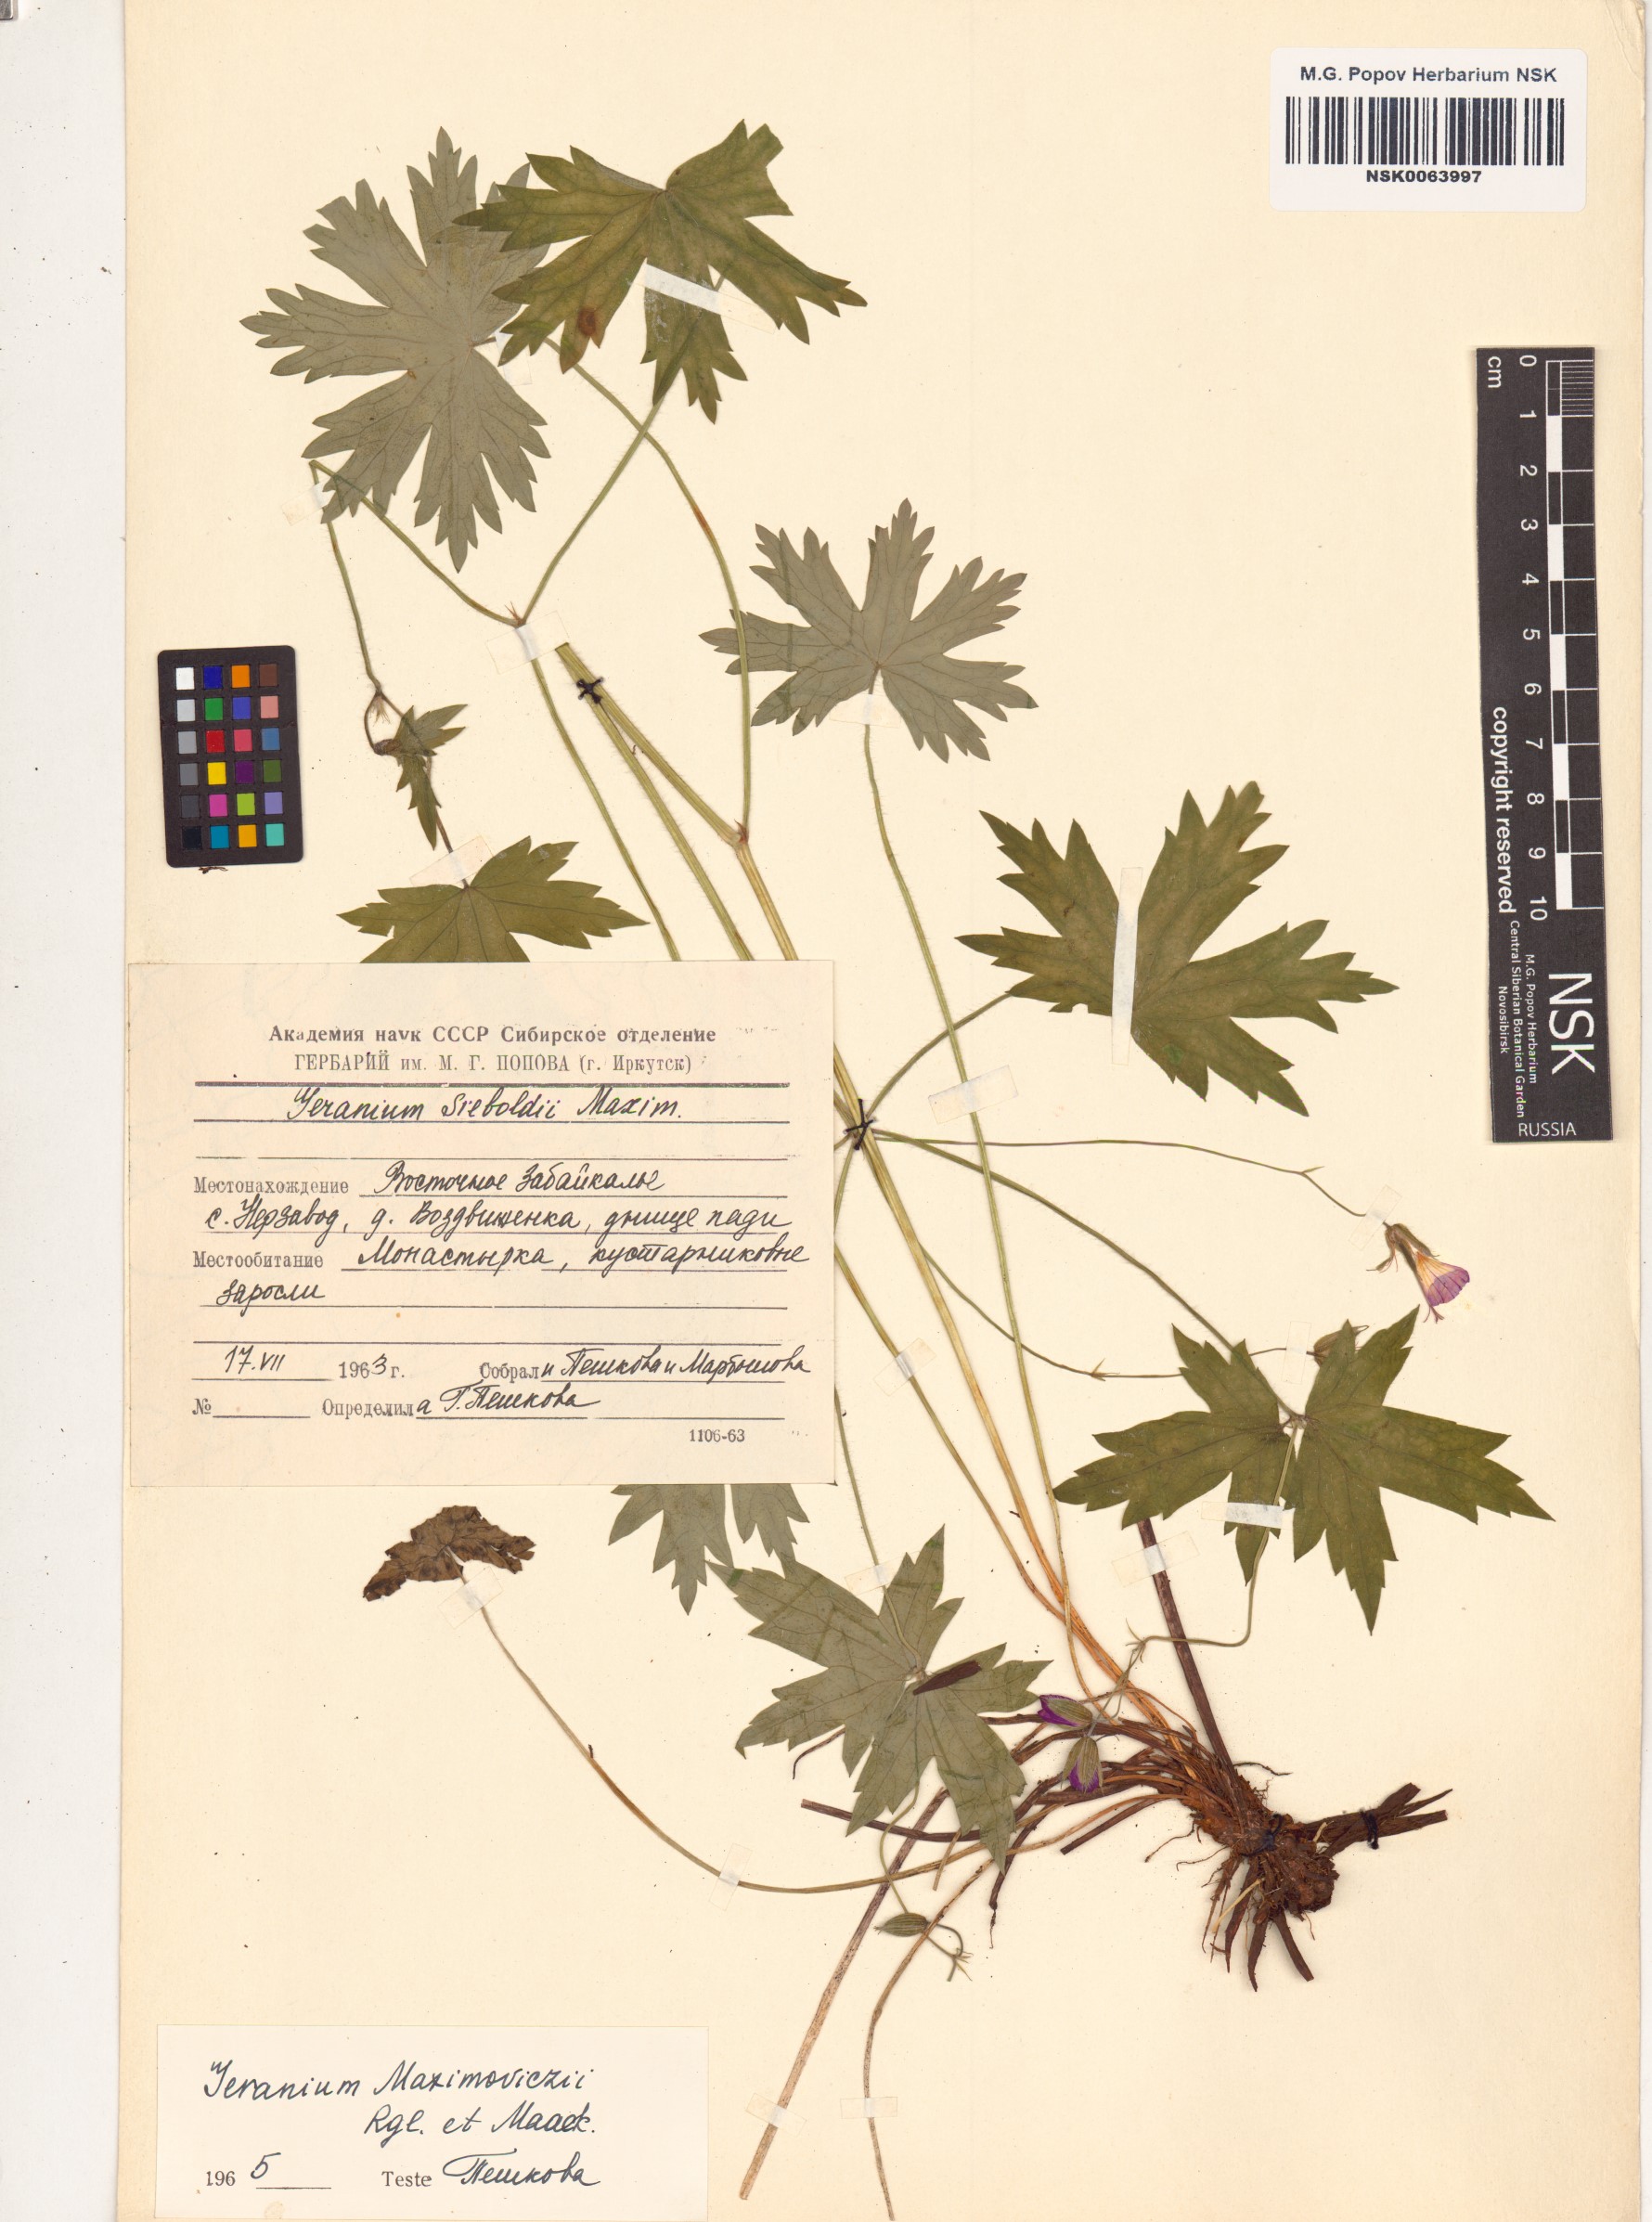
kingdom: Plantae
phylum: Tracheophyta
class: Magnoliopsida
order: Geraniales
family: Geraniaceae
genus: Geranium
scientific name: Geranium maximowiczii
